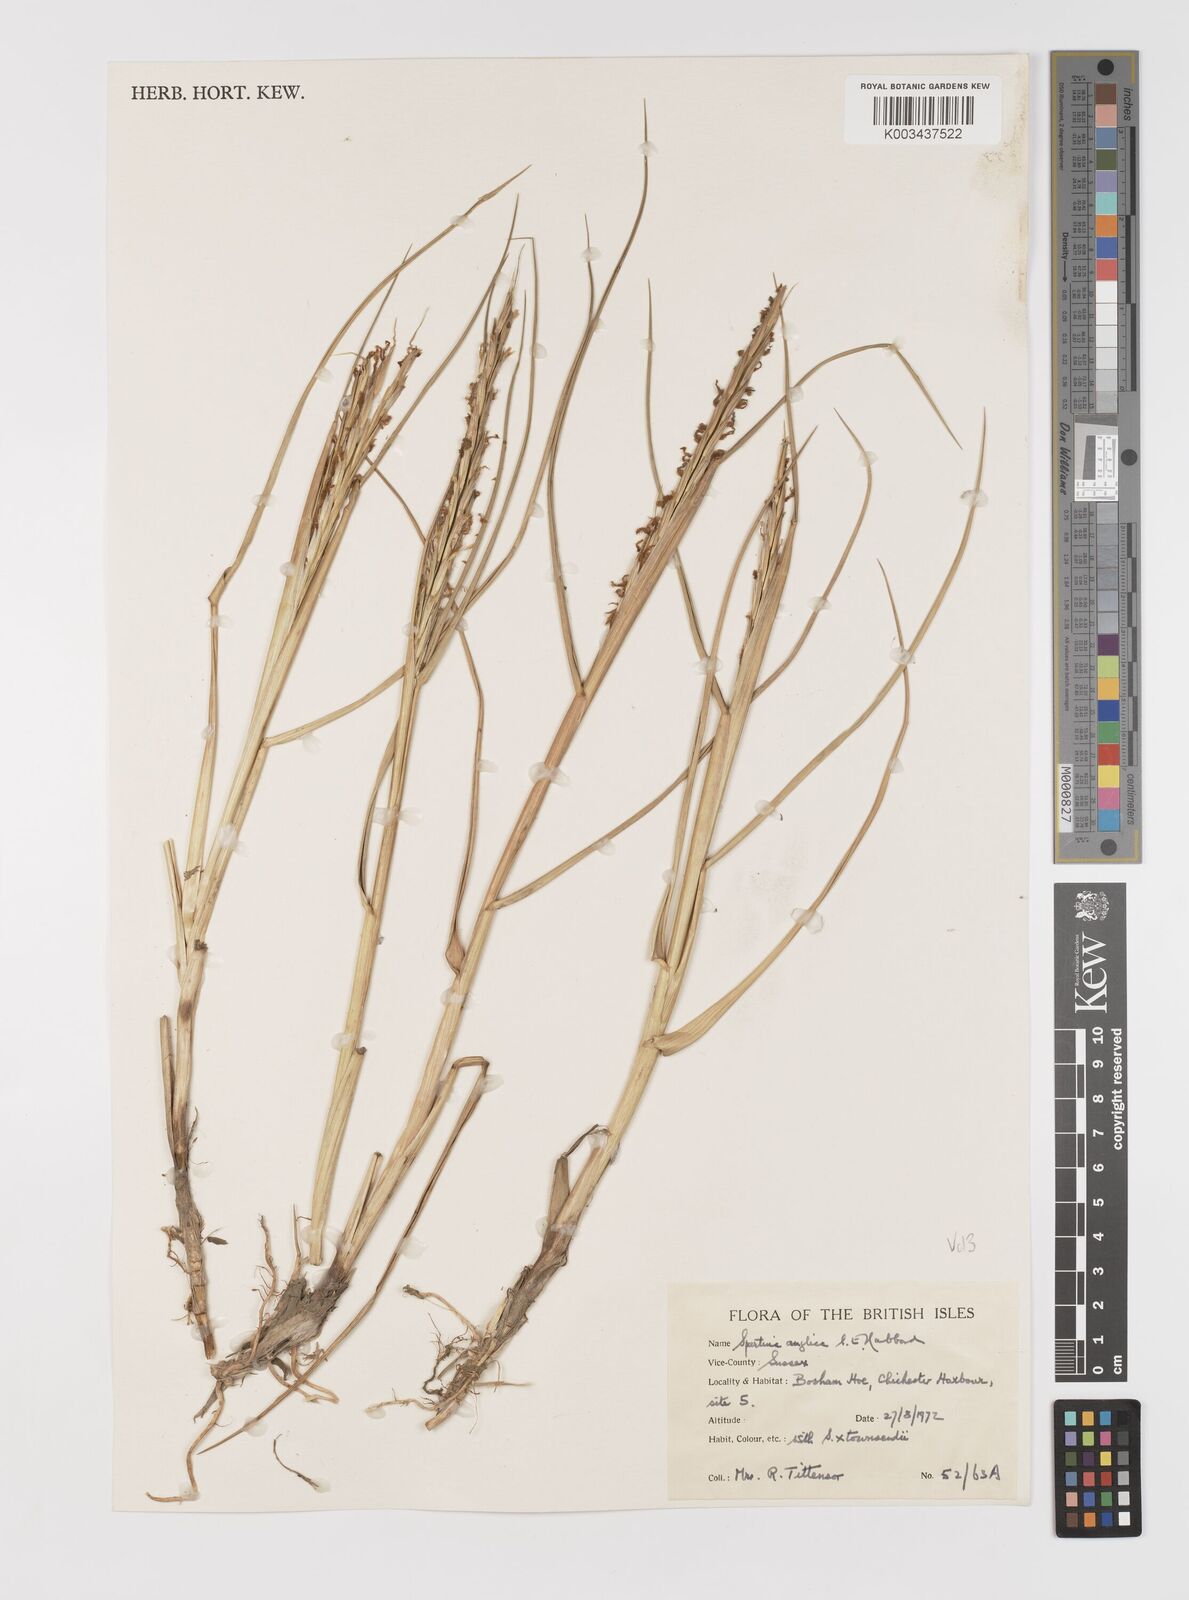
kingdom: Plantae
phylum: Tracheophyta
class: Liliopsida
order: Poales
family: Poaceae
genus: Sporobolus
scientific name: Sporobolus anglicus
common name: English cordgrass
